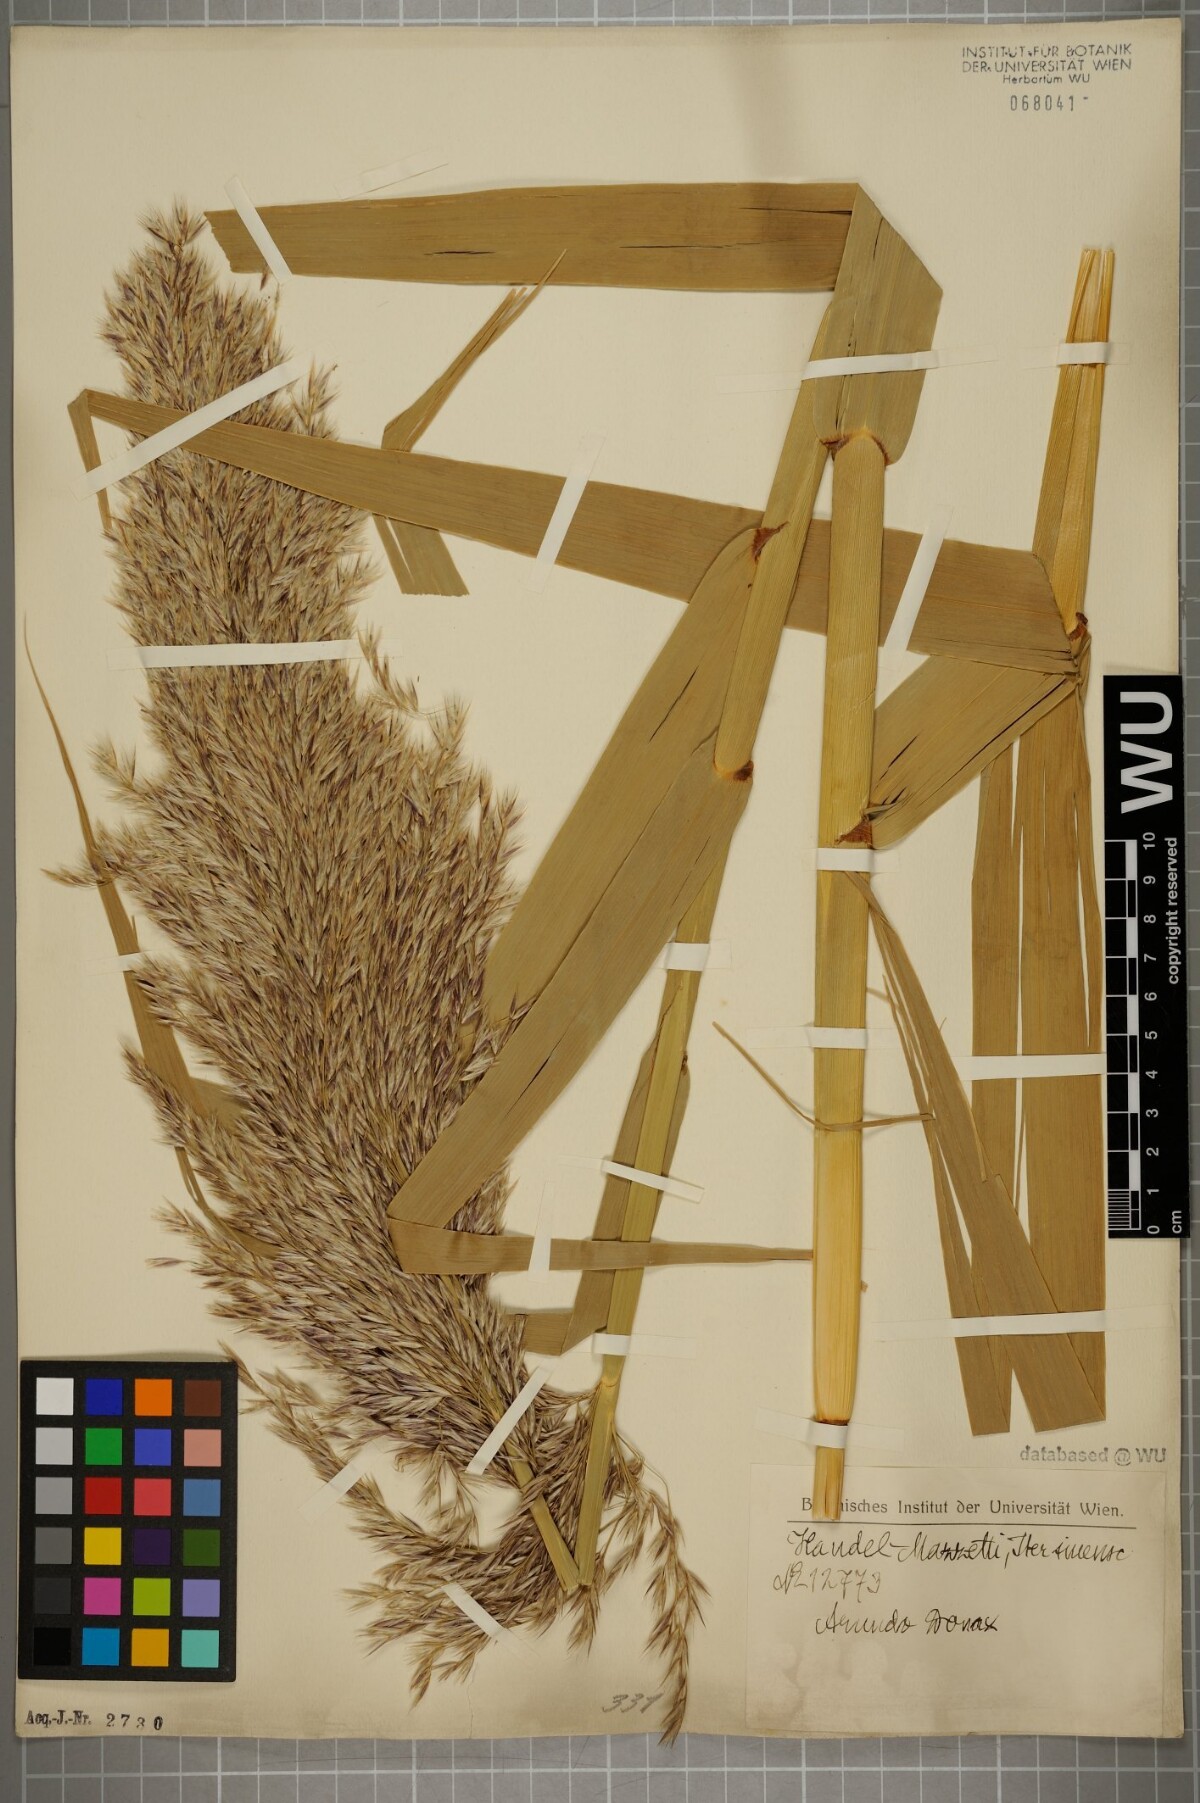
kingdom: Plantae
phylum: Tracheophyta
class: Liliopsida
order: Poales
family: Poaceae
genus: Arundo
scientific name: Arundo donax
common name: Giant reed
